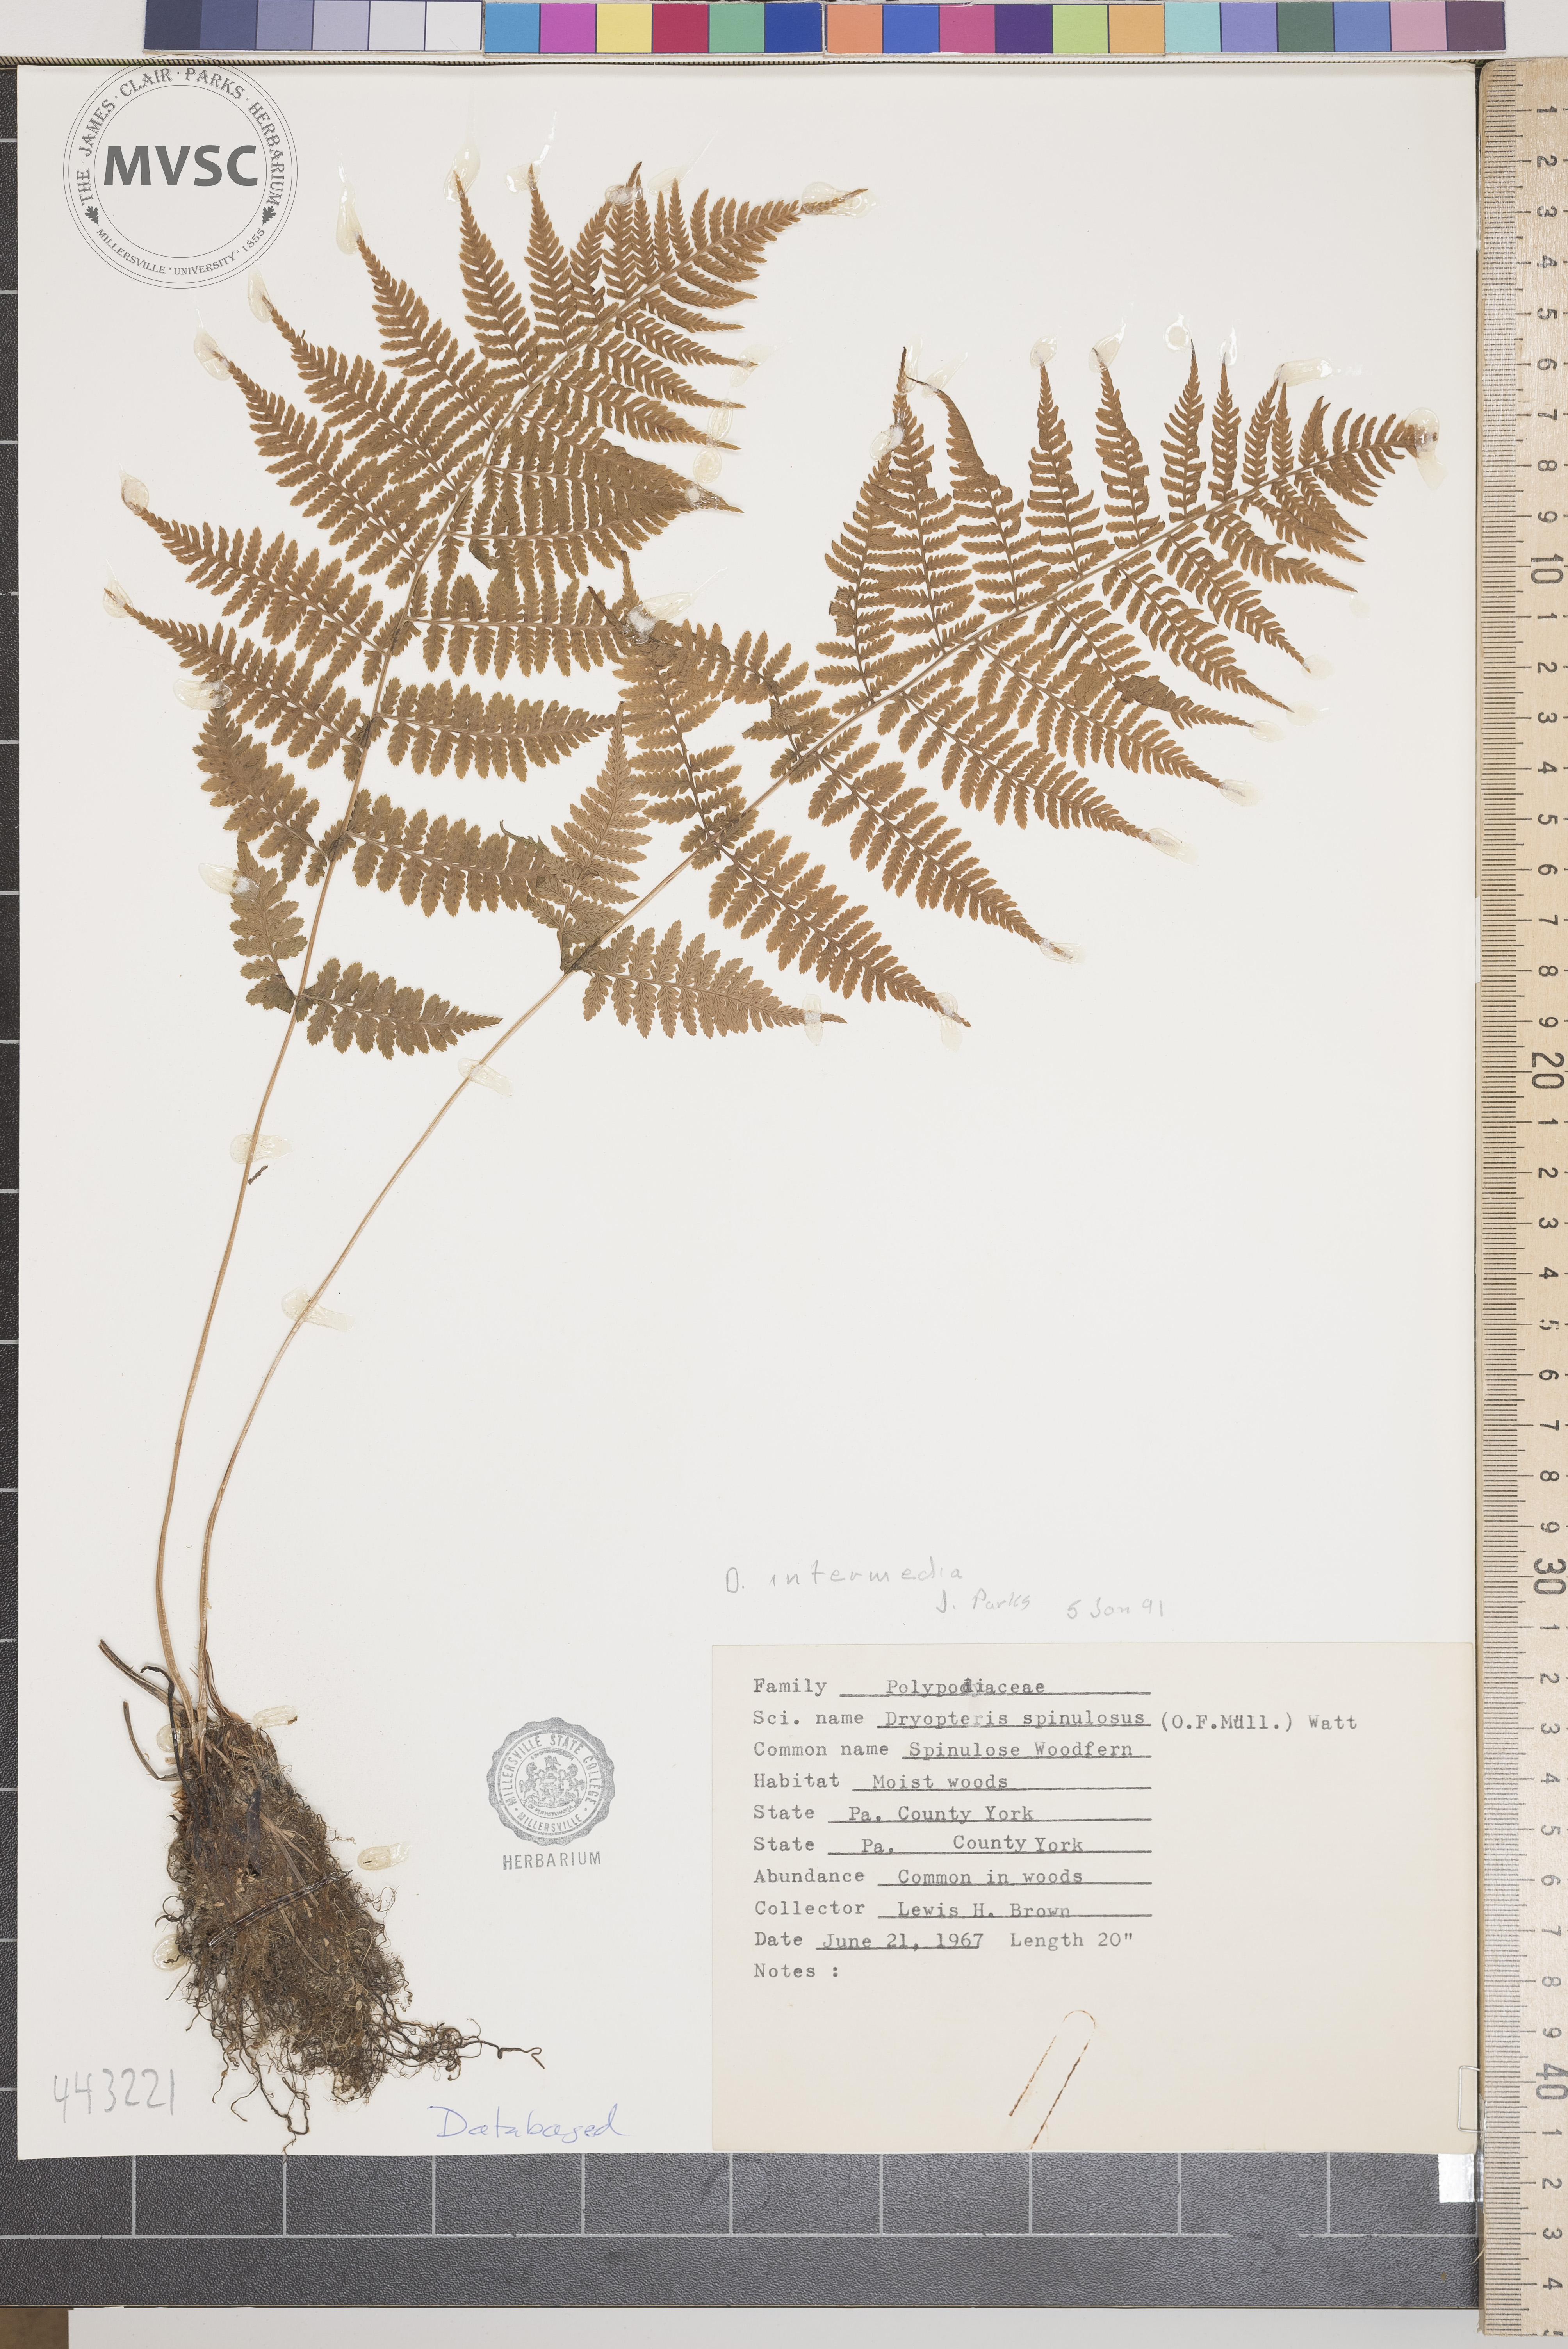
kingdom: Plantae
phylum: Tracheophyta
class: Polypodiopsida
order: Polypodiales
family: Dryopteridaceae
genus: Dryopteris
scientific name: Dryopteris intermedia
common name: Evergreen wood fern
